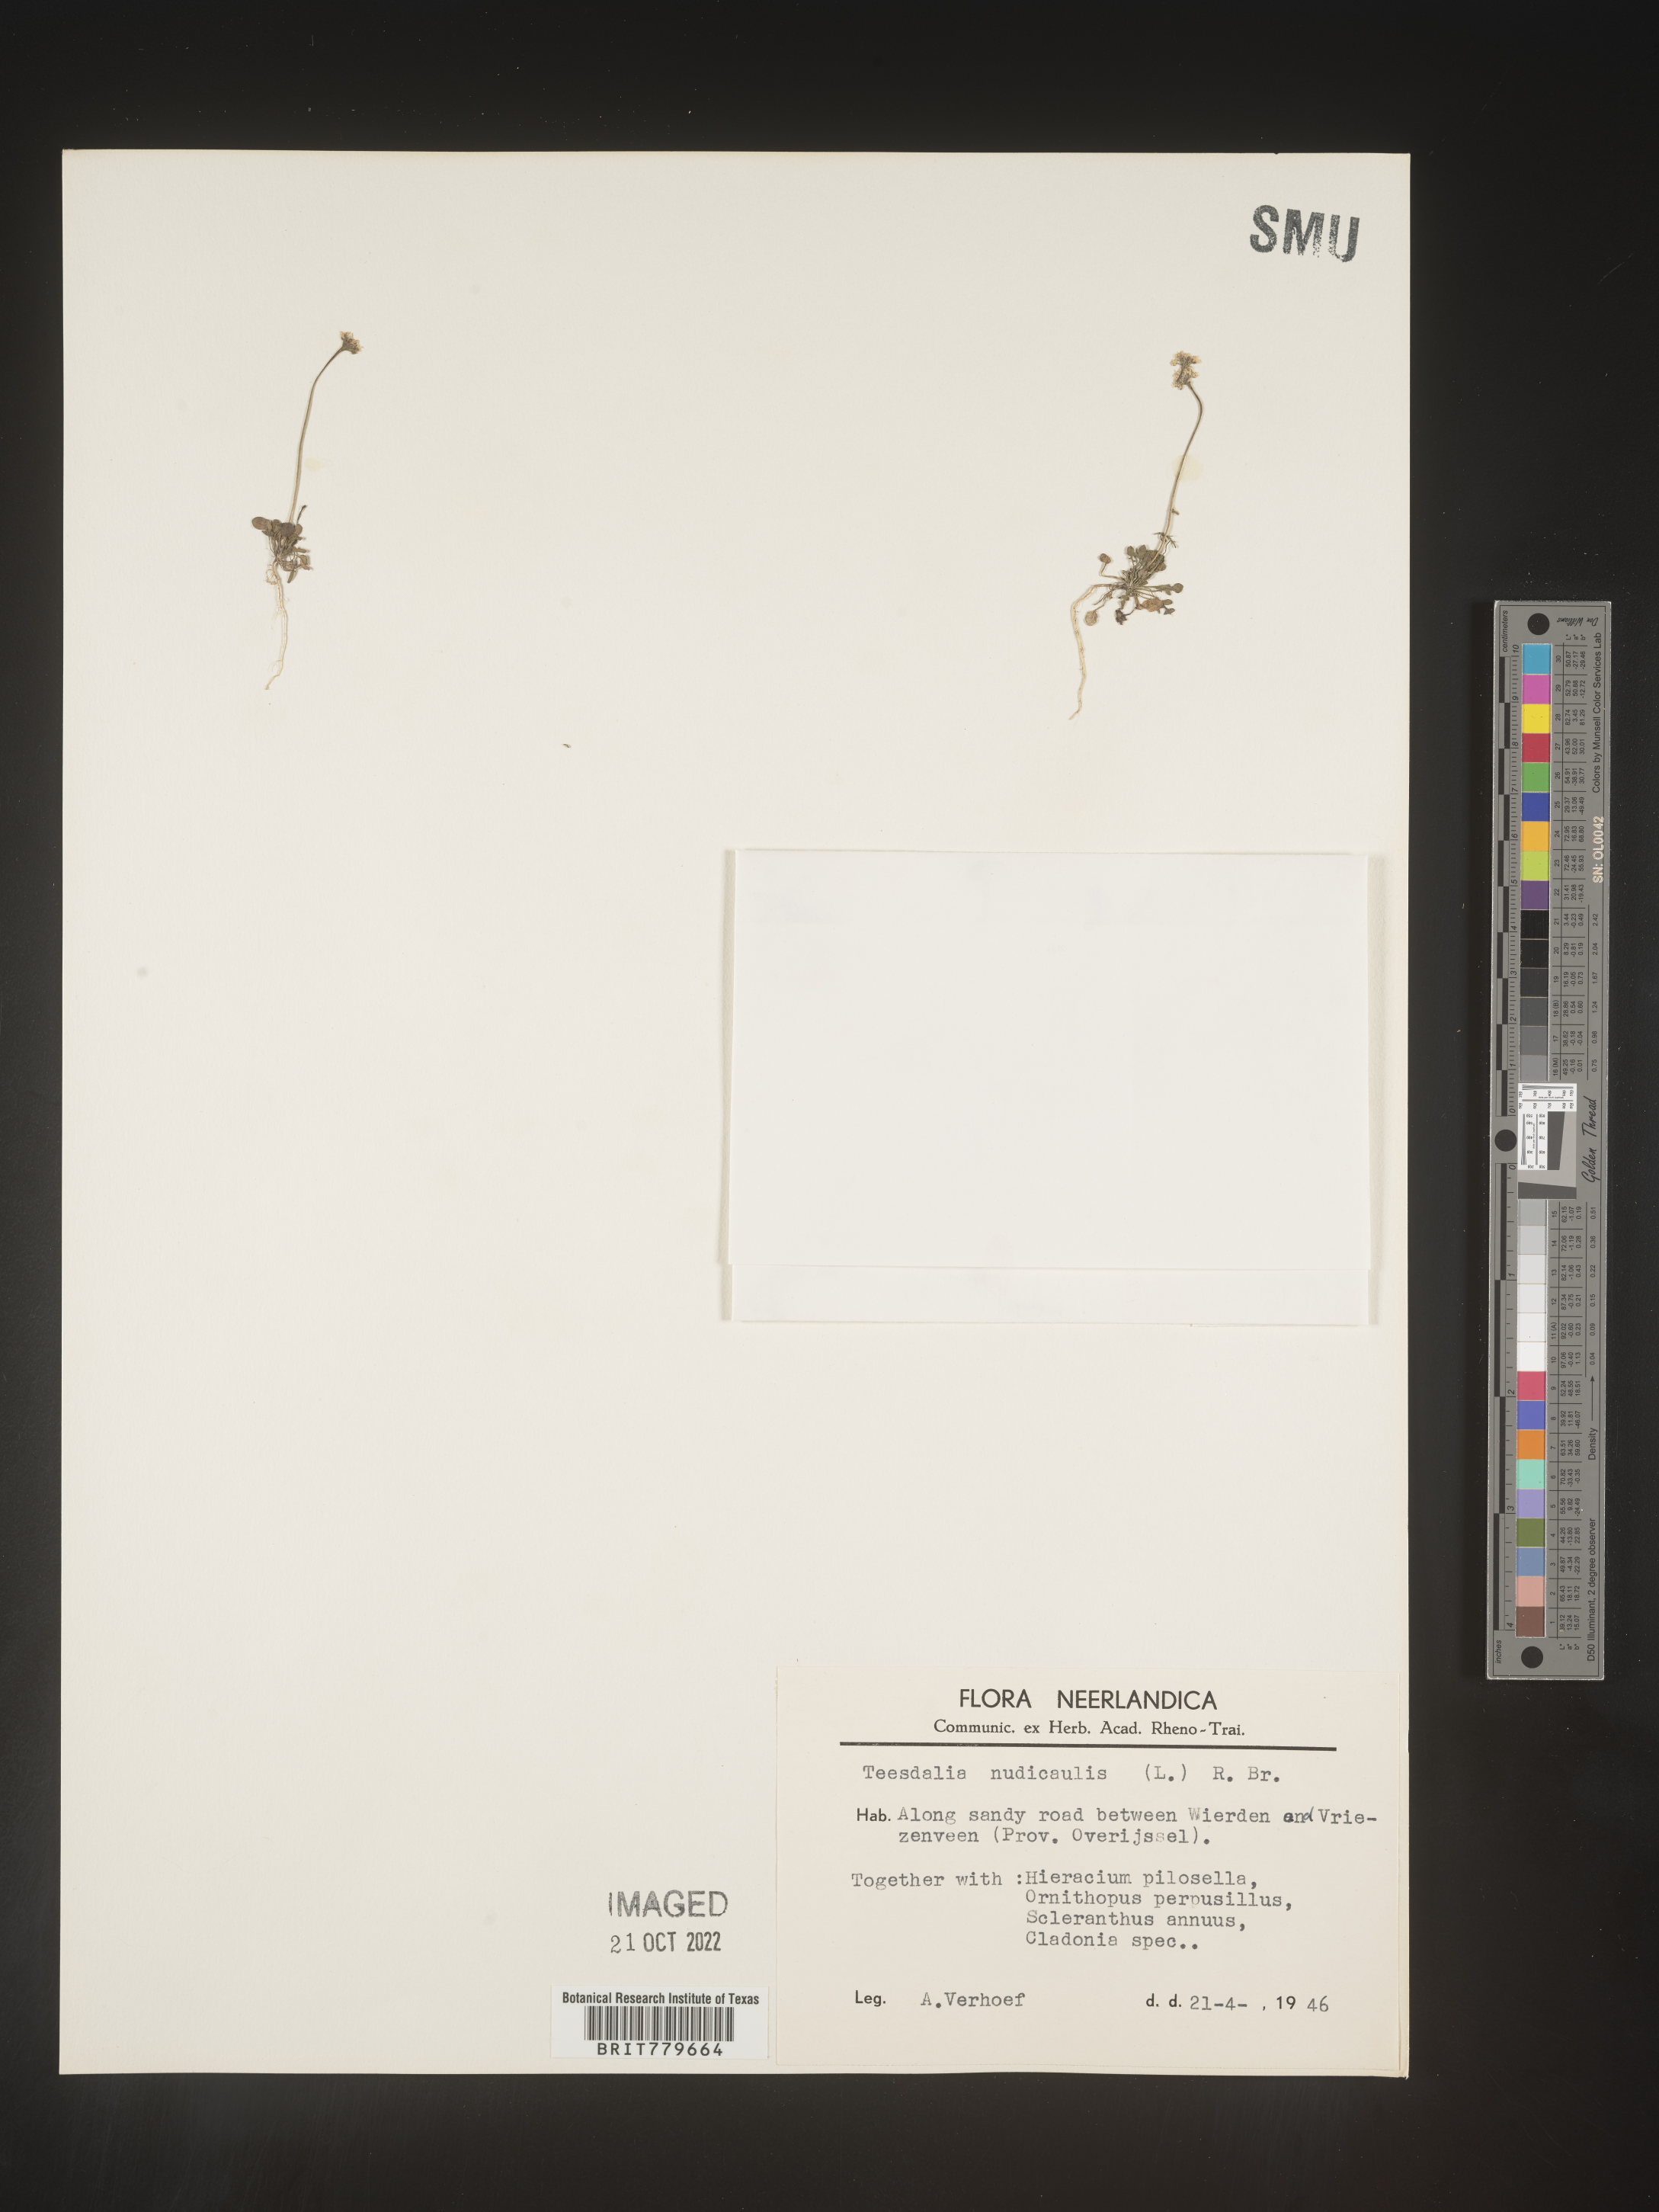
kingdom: Plantae
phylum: Tracheophyta
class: Magnoliopsida
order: Brassicales
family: Brassicaceae
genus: Teesdalia
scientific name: Teesdalia
